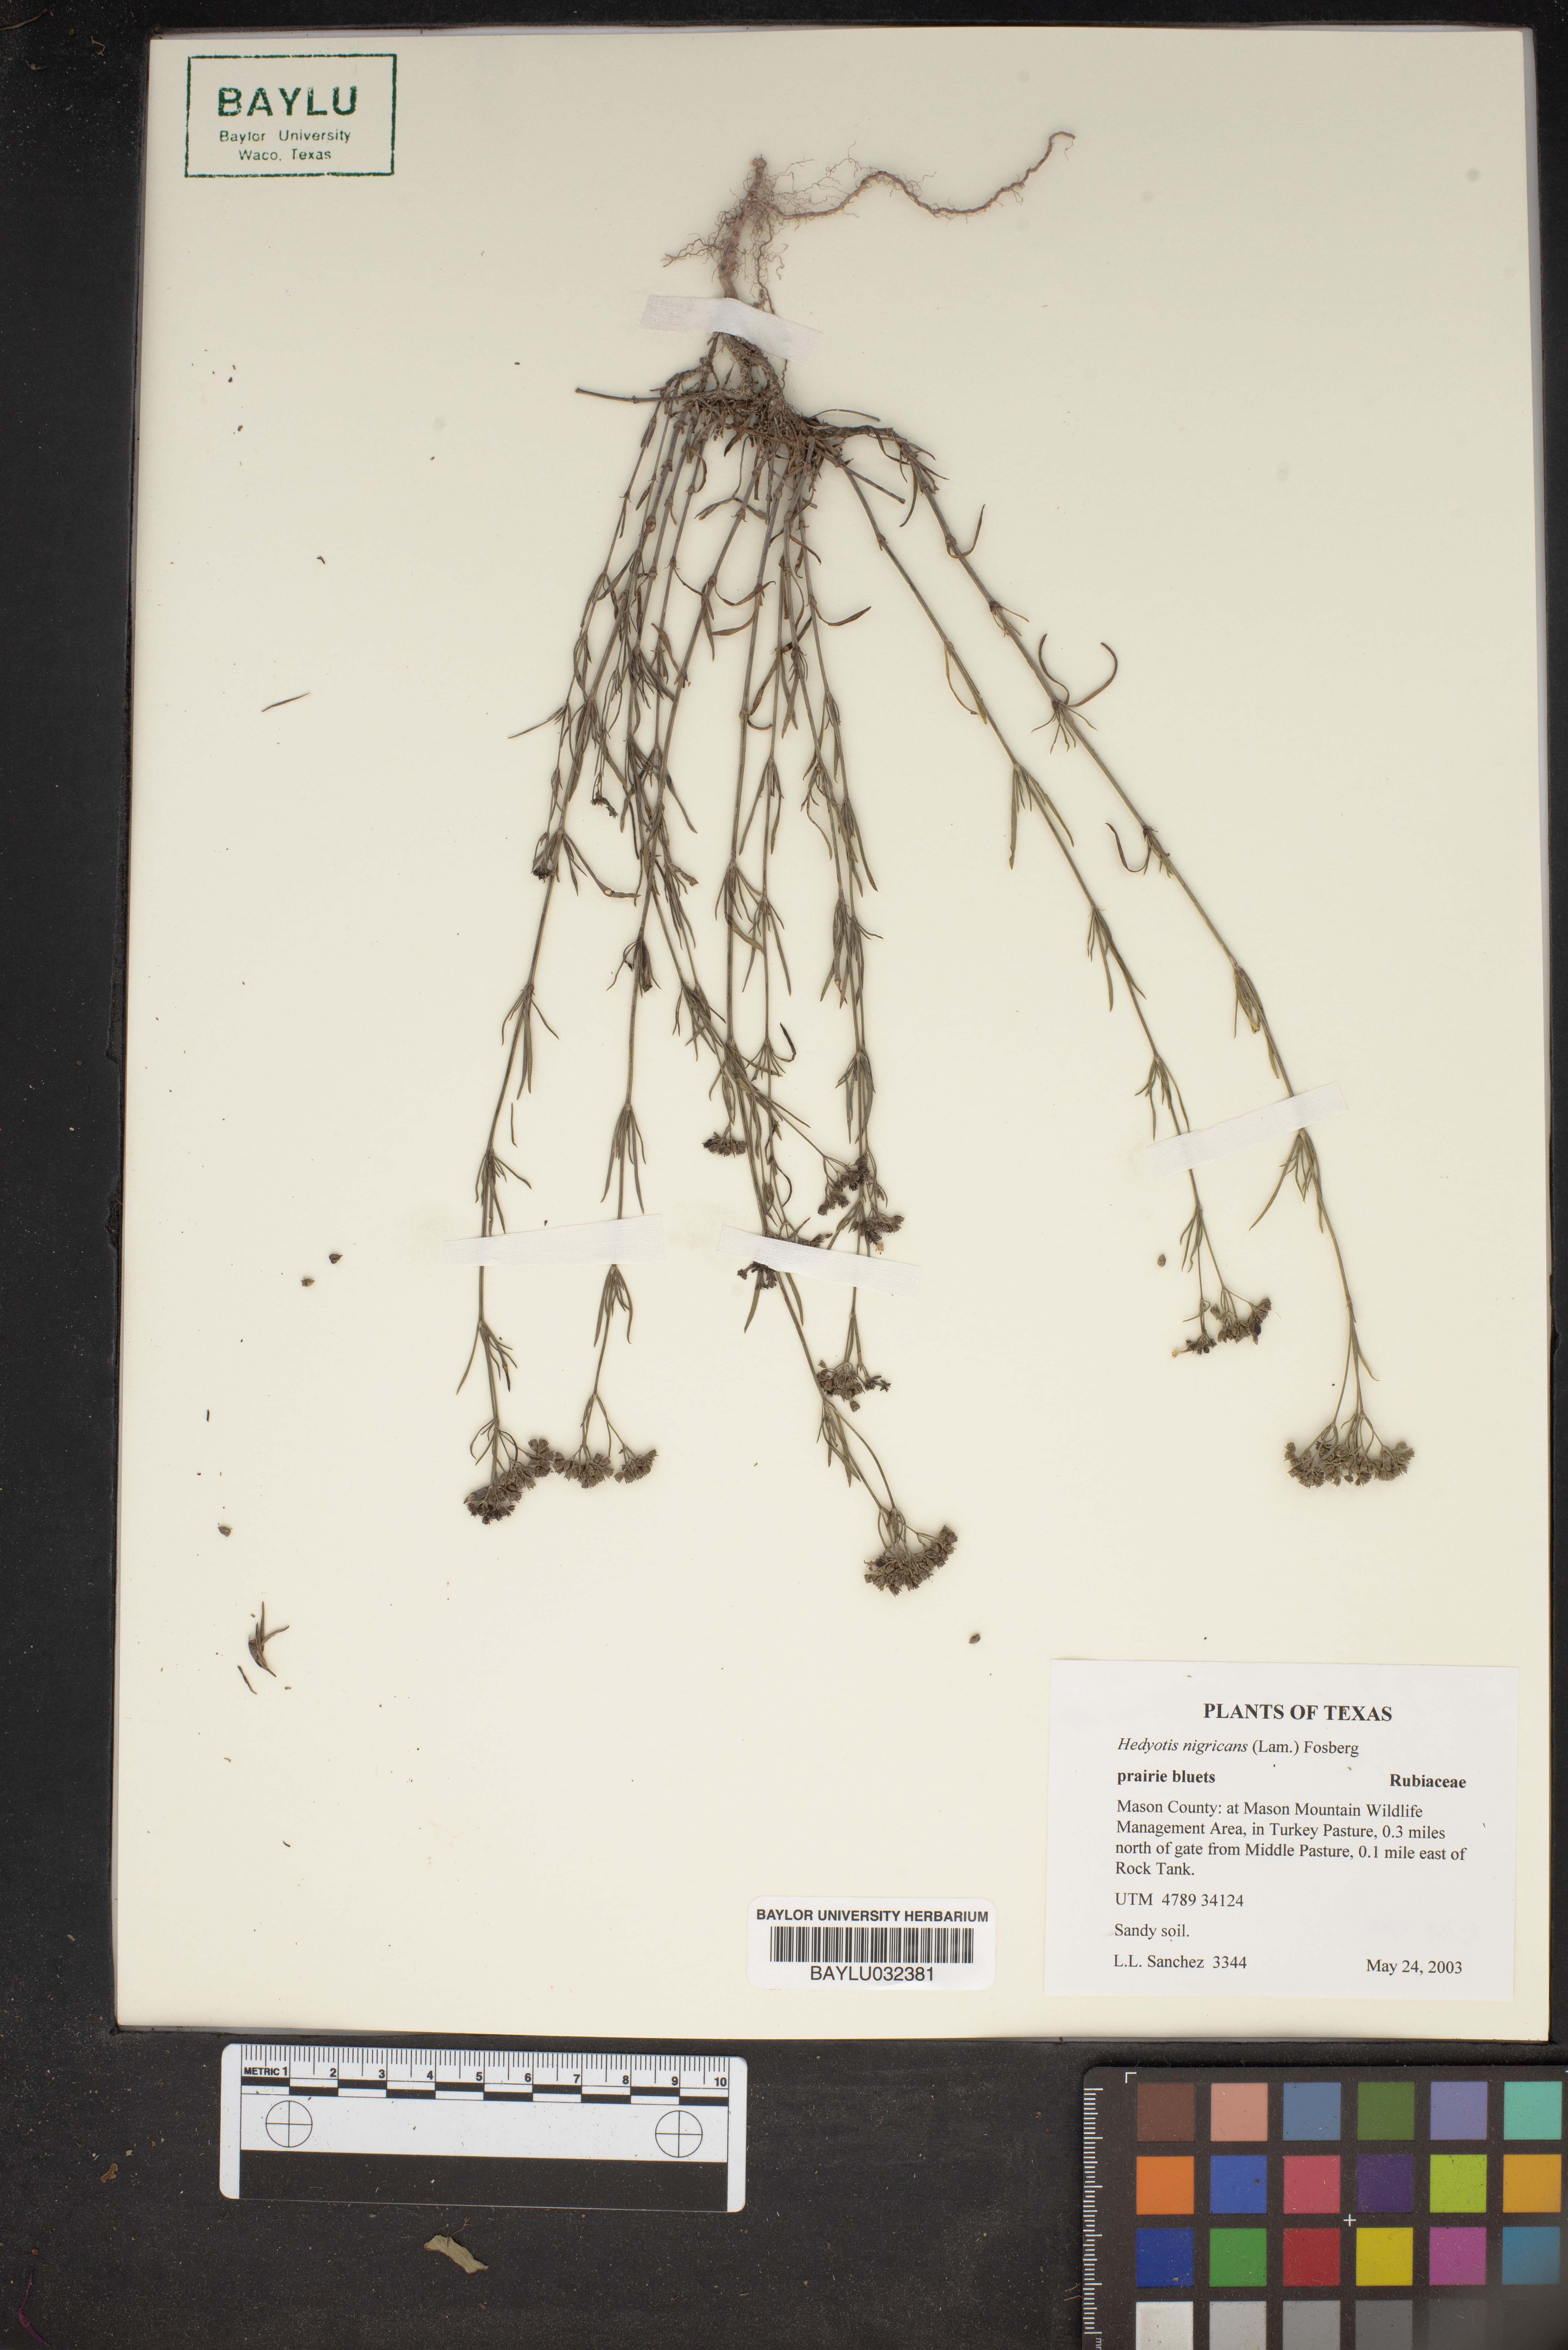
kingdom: Plantae
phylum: Tracheophyta
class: Magnoliopsida
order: Gentianales
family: Rubiaceae
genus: Stenaria
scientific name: Stenaria nigricans
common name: Diamondflowers
